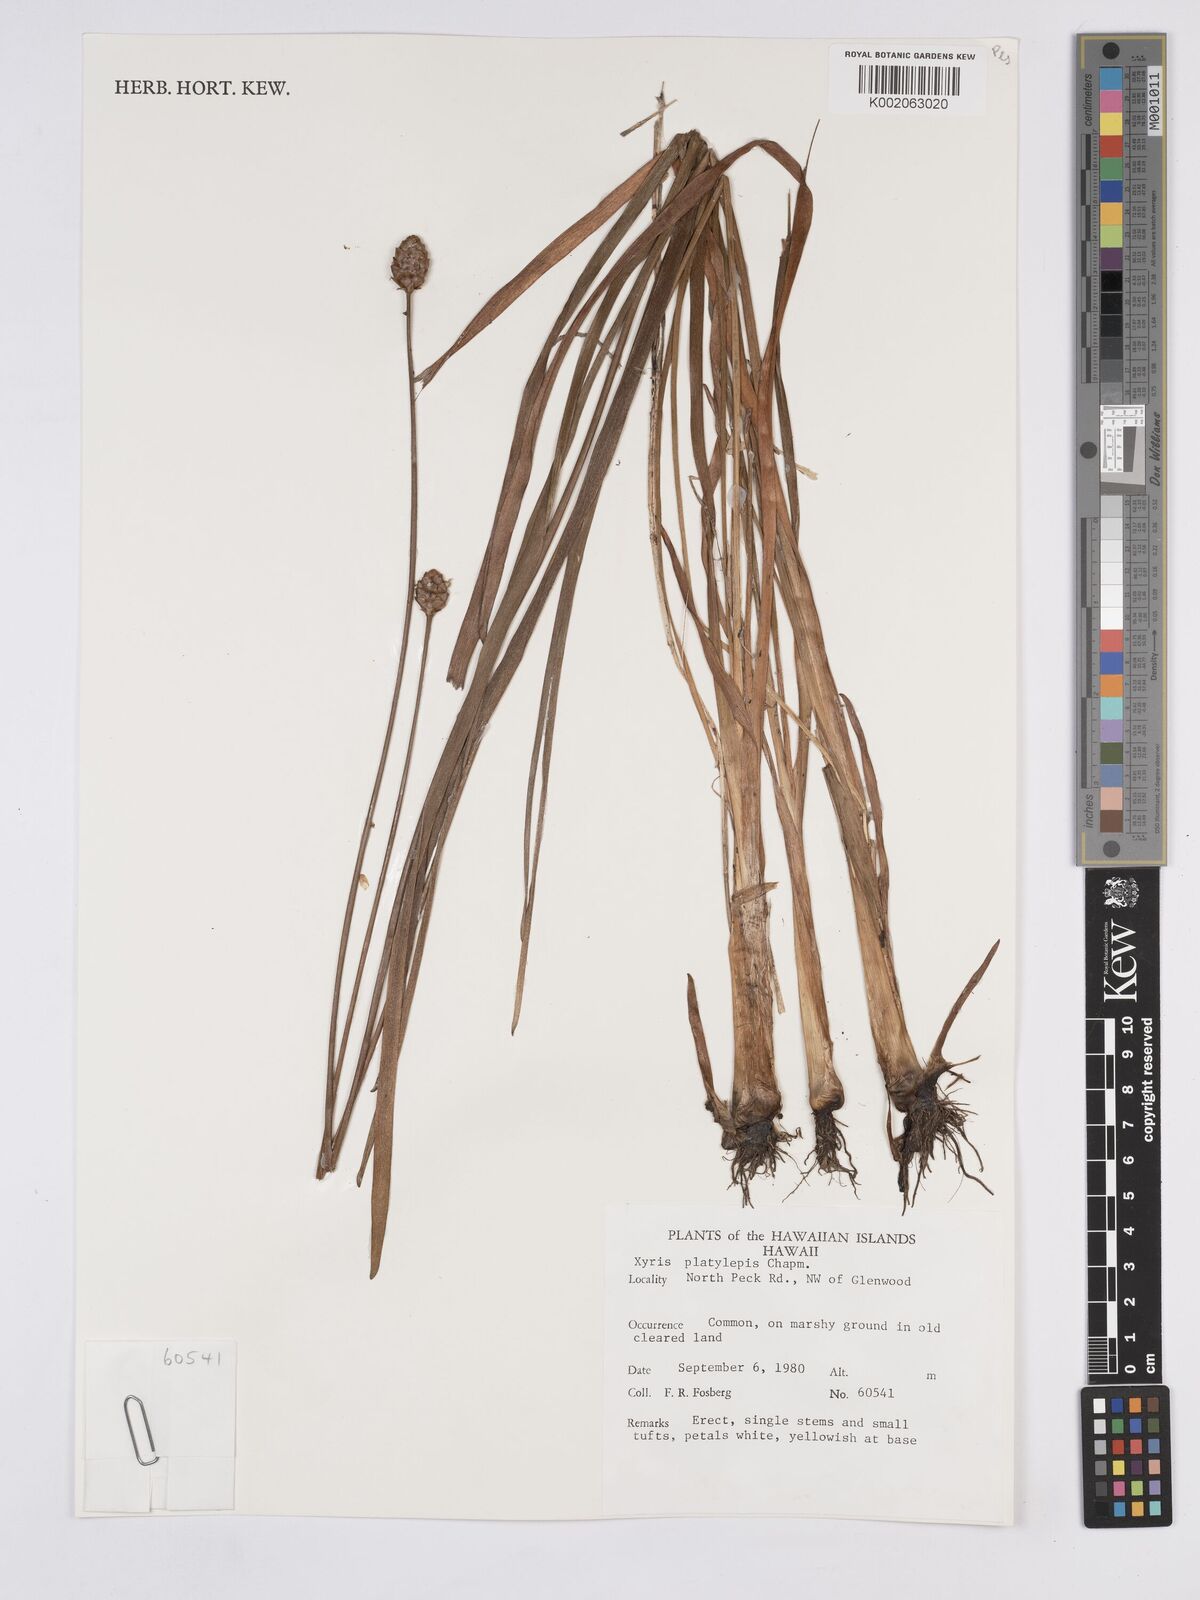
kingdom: Plantae
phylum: Tracheophyta
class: Liliopsida
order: Poales
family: Xyridaceae
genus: Xyris
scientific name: Xyris platylepis
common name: Tall yelloweyed grass
